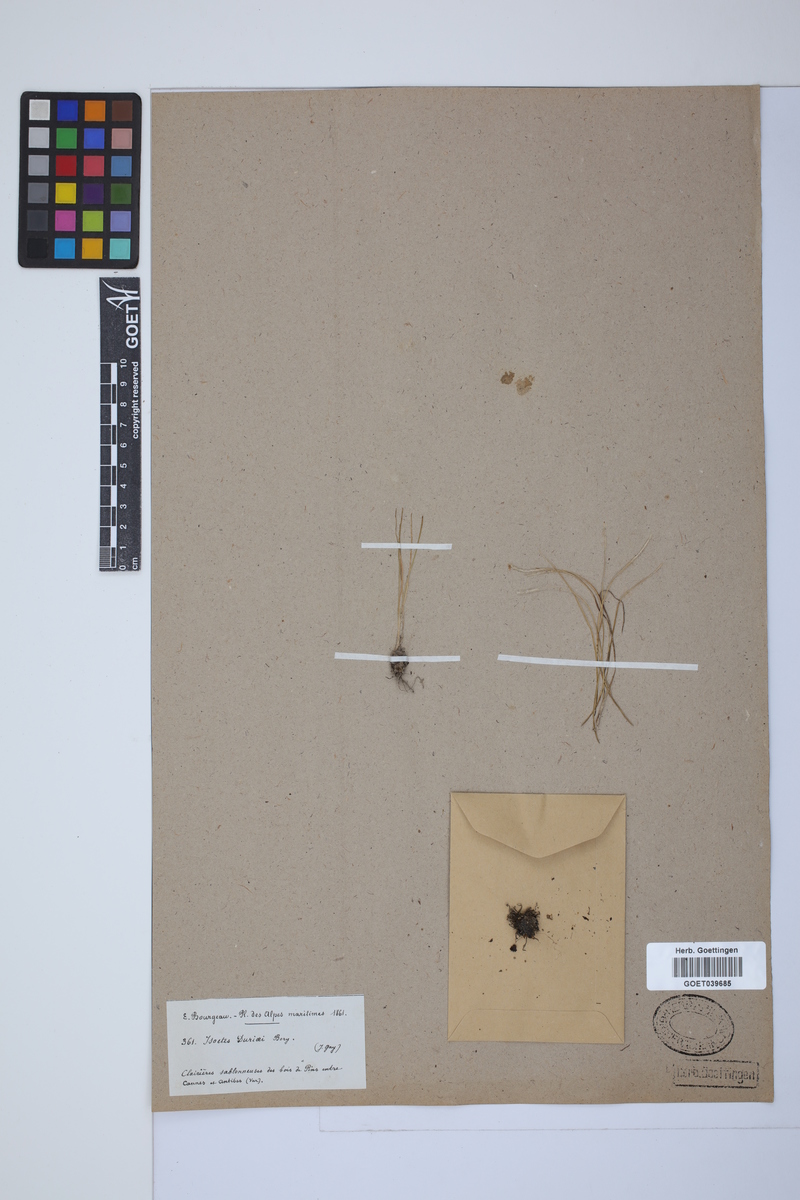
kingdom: Plantae
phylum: Tracheophyta
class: Lycopodiopsida
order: Isoetales
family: Isoetaceae
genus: Isoetes
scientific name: Isoetes duriei
